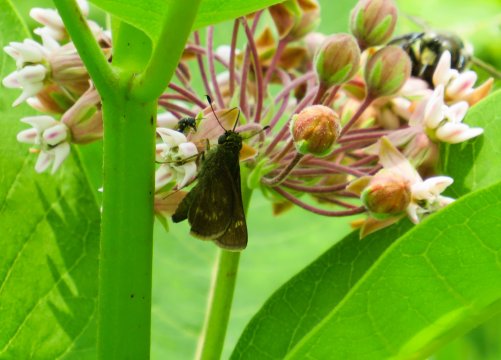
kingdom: Animalia
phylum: Arthropoda
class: Insecta
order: Lepidoptera
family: Hesperiidae
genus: Euphyes
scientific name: Euphyes vestris
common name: Dun Skipper
